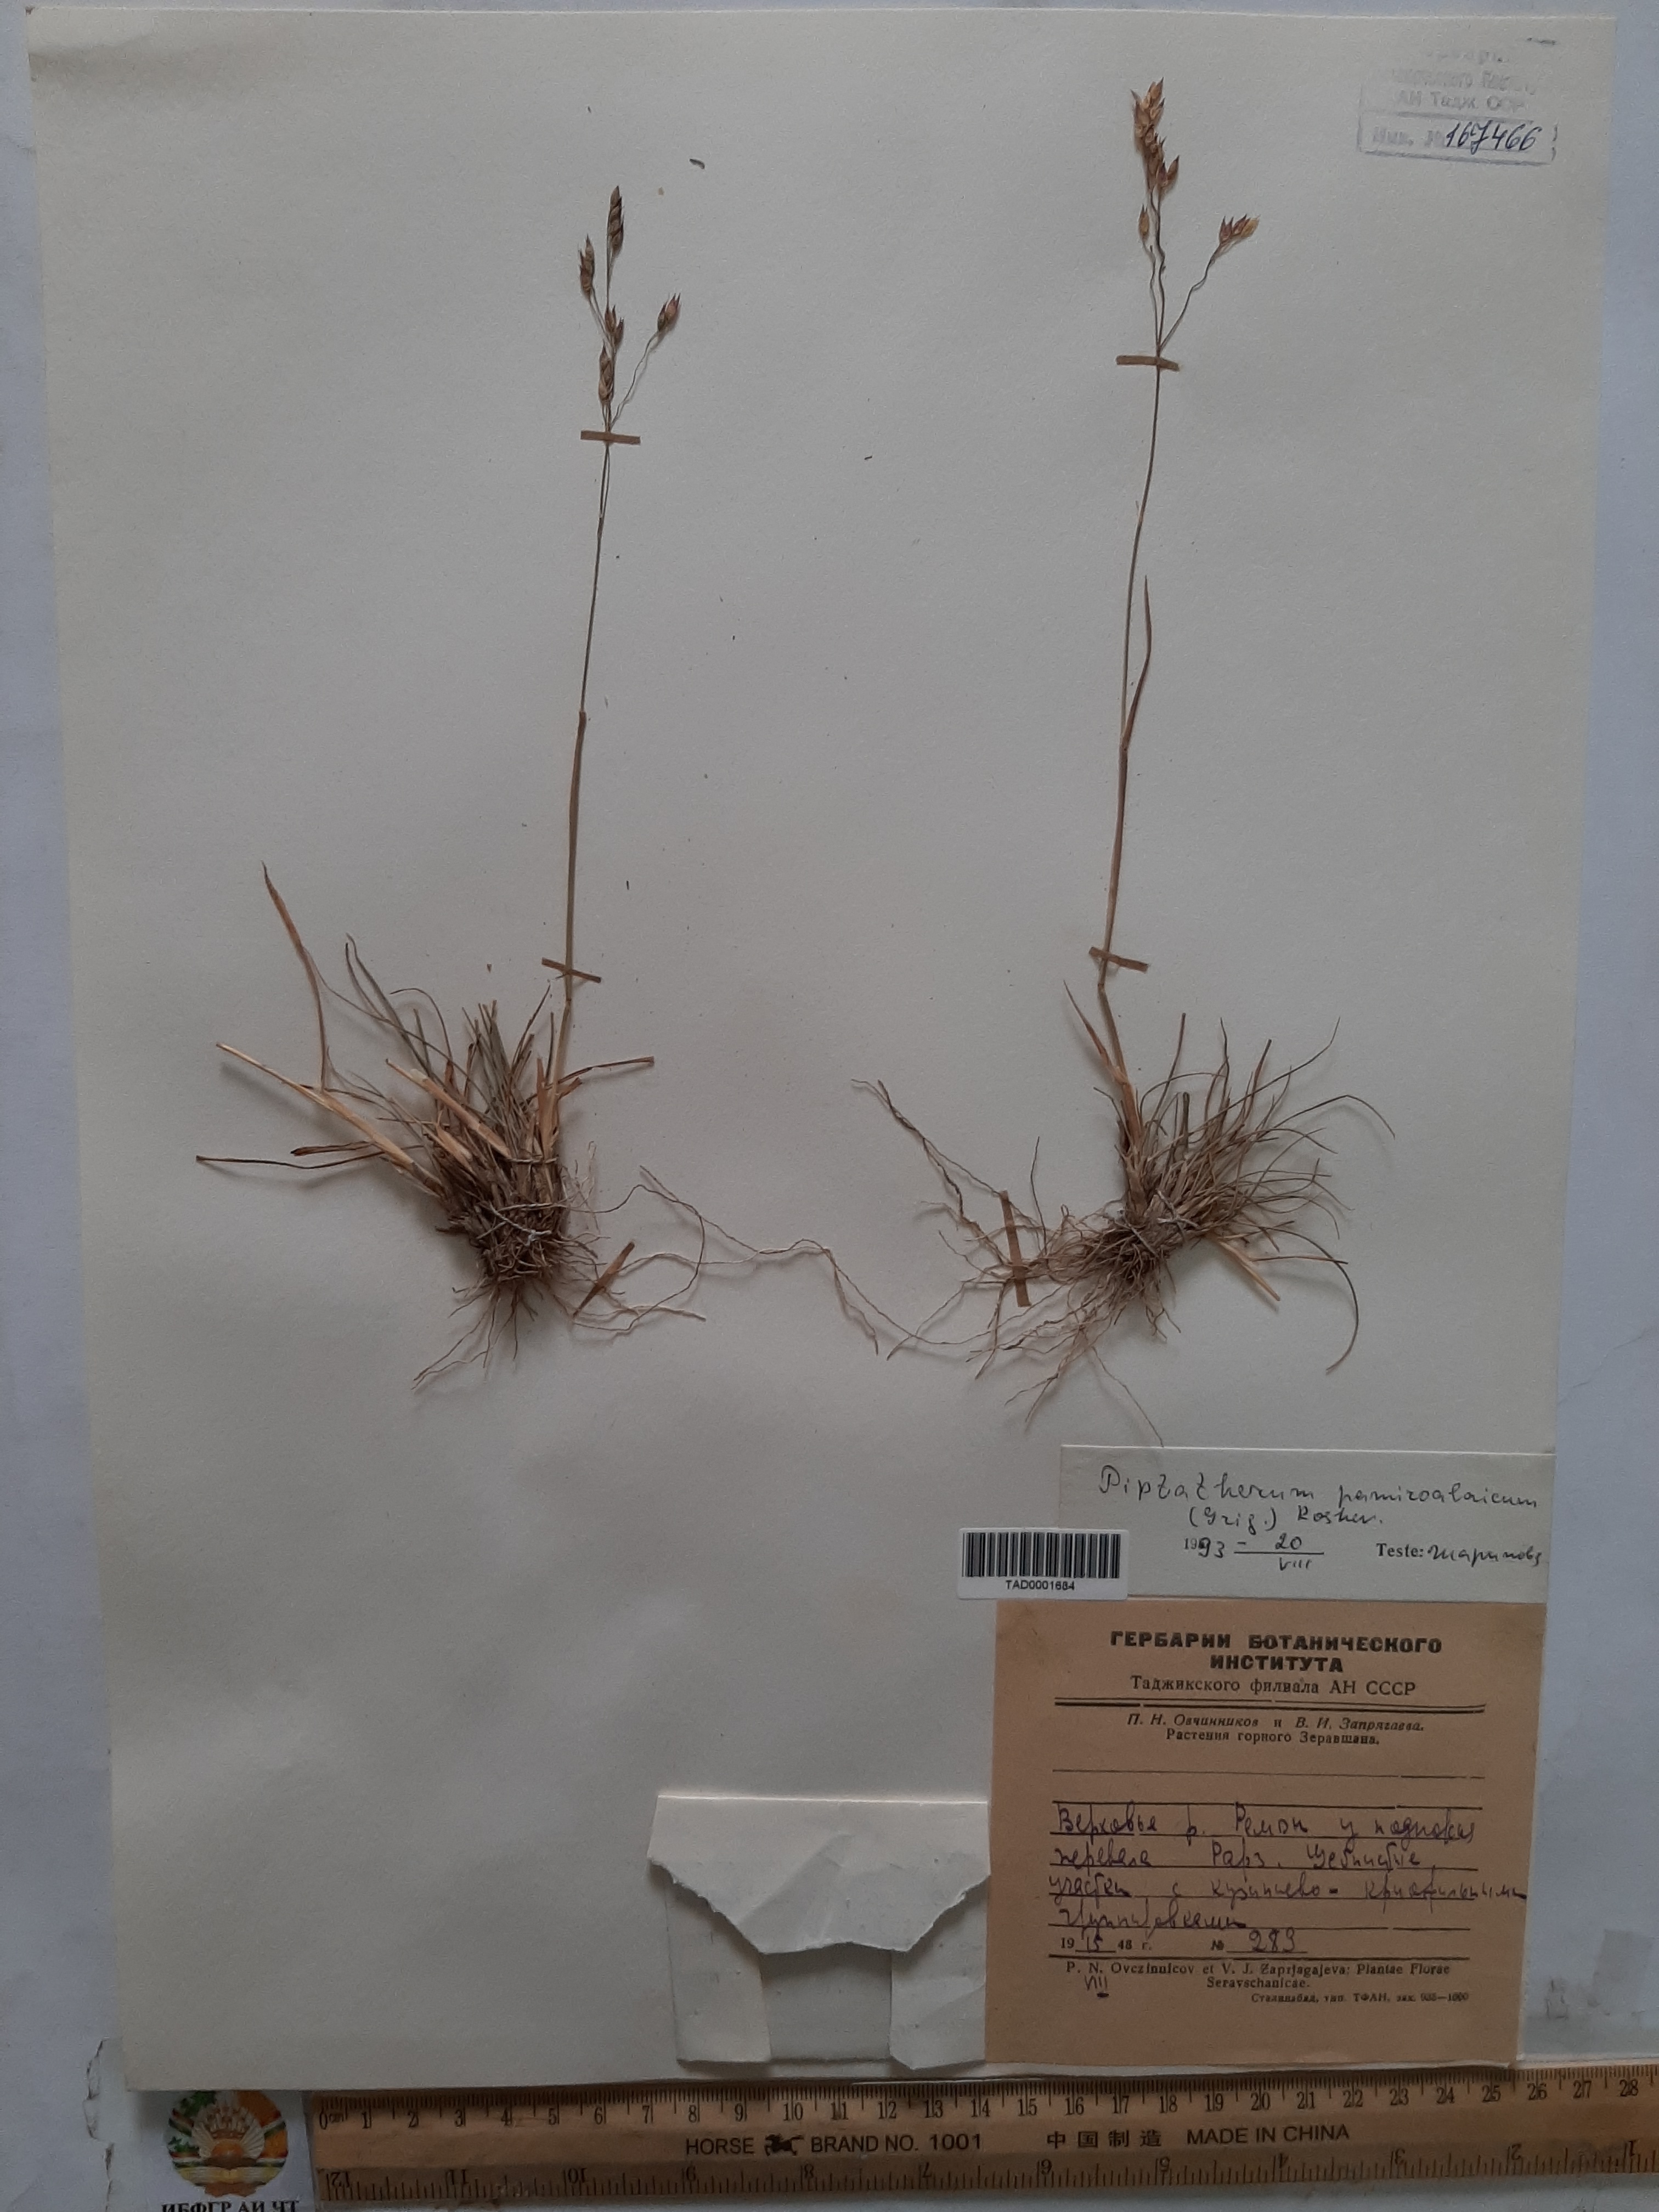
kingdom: Plantae
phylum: Tracheophyta
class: Liliopsida
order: Poales
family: Poaceae
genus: Piptatherum
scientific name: Piptatherum pamiralaicum
